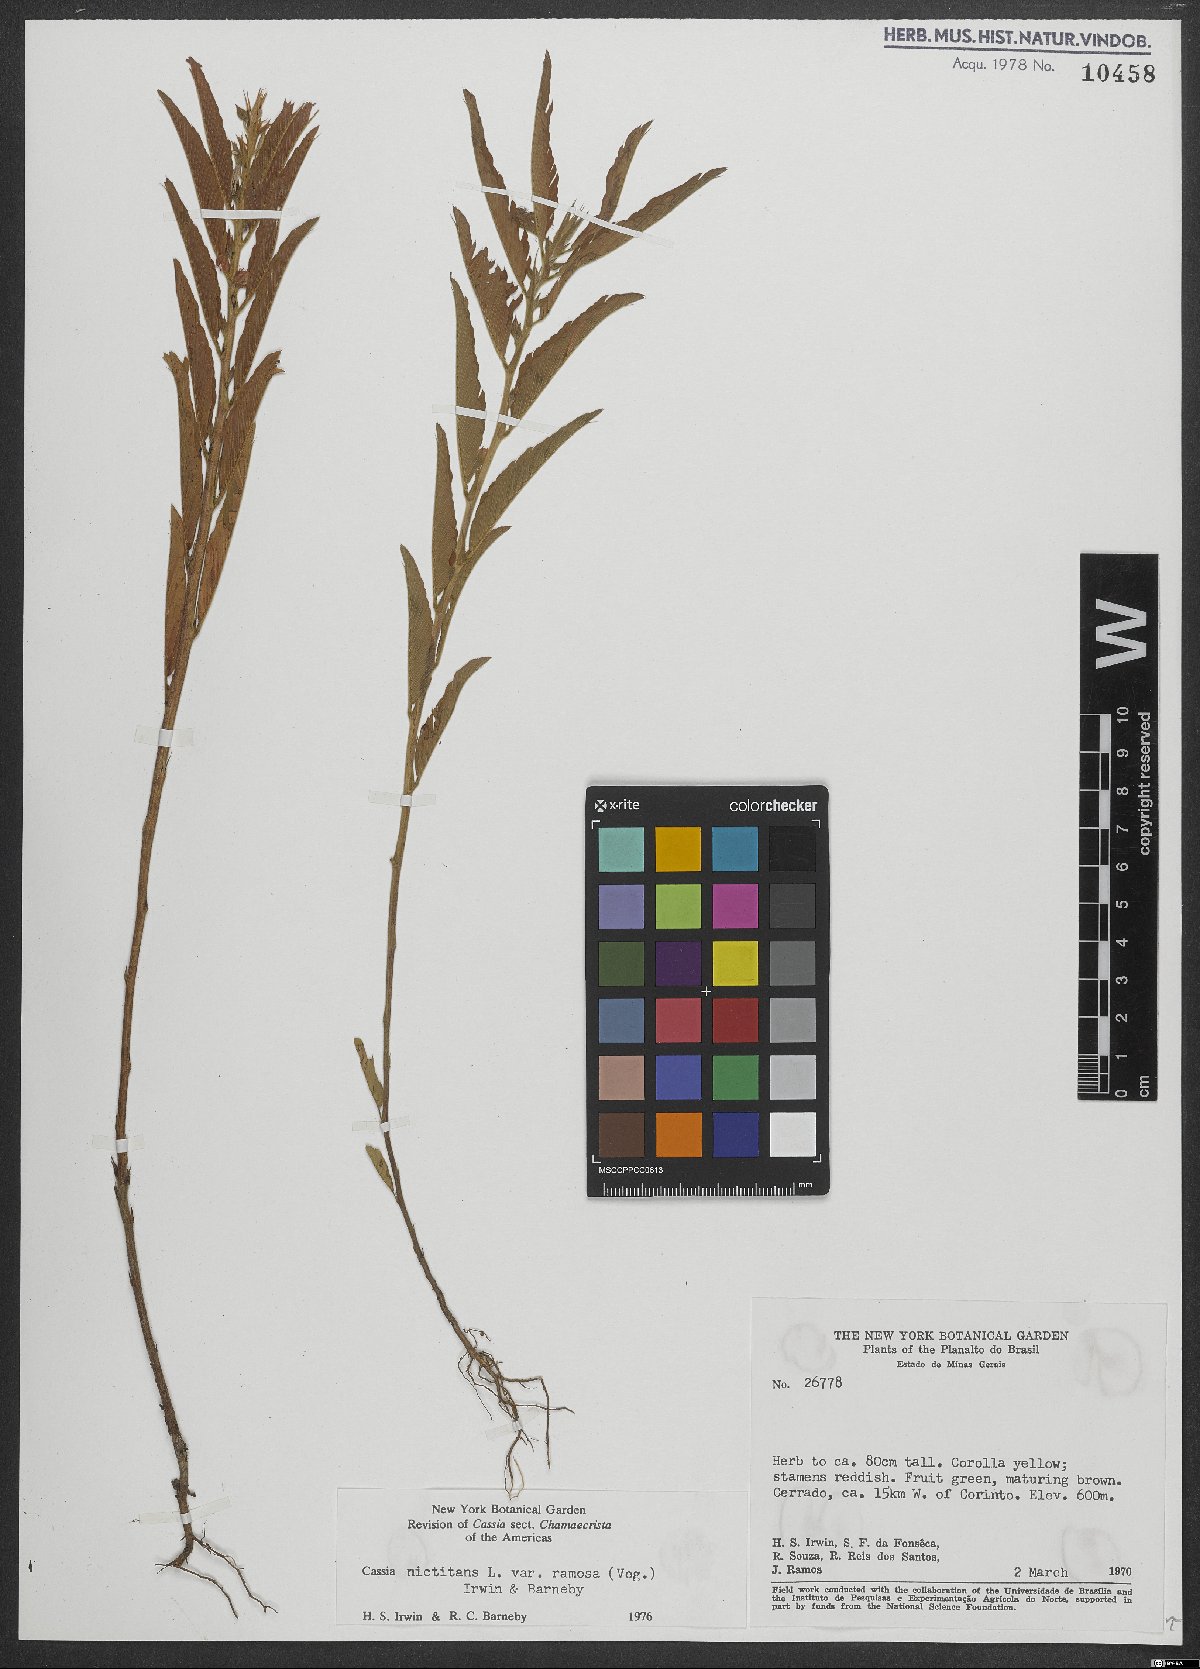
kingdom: Plantae
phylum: Tracheophyta
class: Magnoliopsida
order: Fabales
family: Fabaceae
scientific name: Fabaceae
